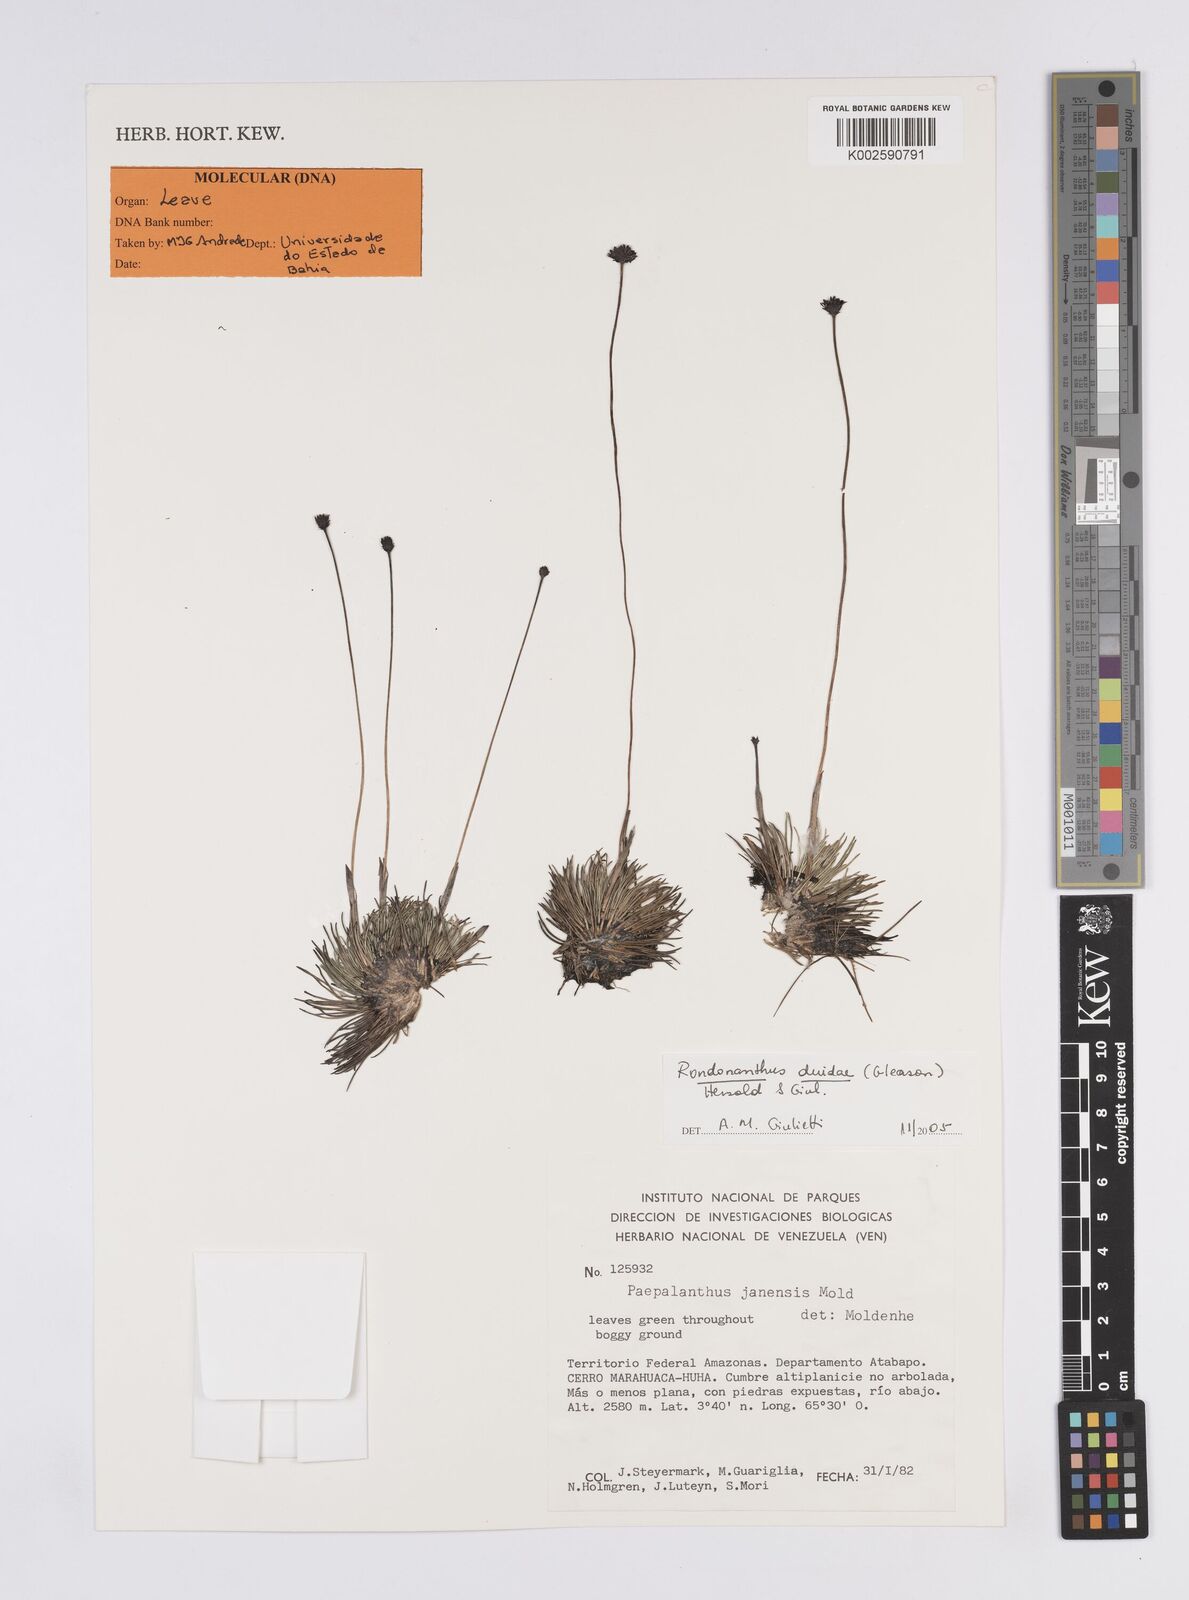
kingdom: Plantae
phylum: Tracheophyta
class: Liliopsida
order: Poales
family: Eriocaulaceae
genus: Rondonanthus
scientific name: Rondonanthus duidae
